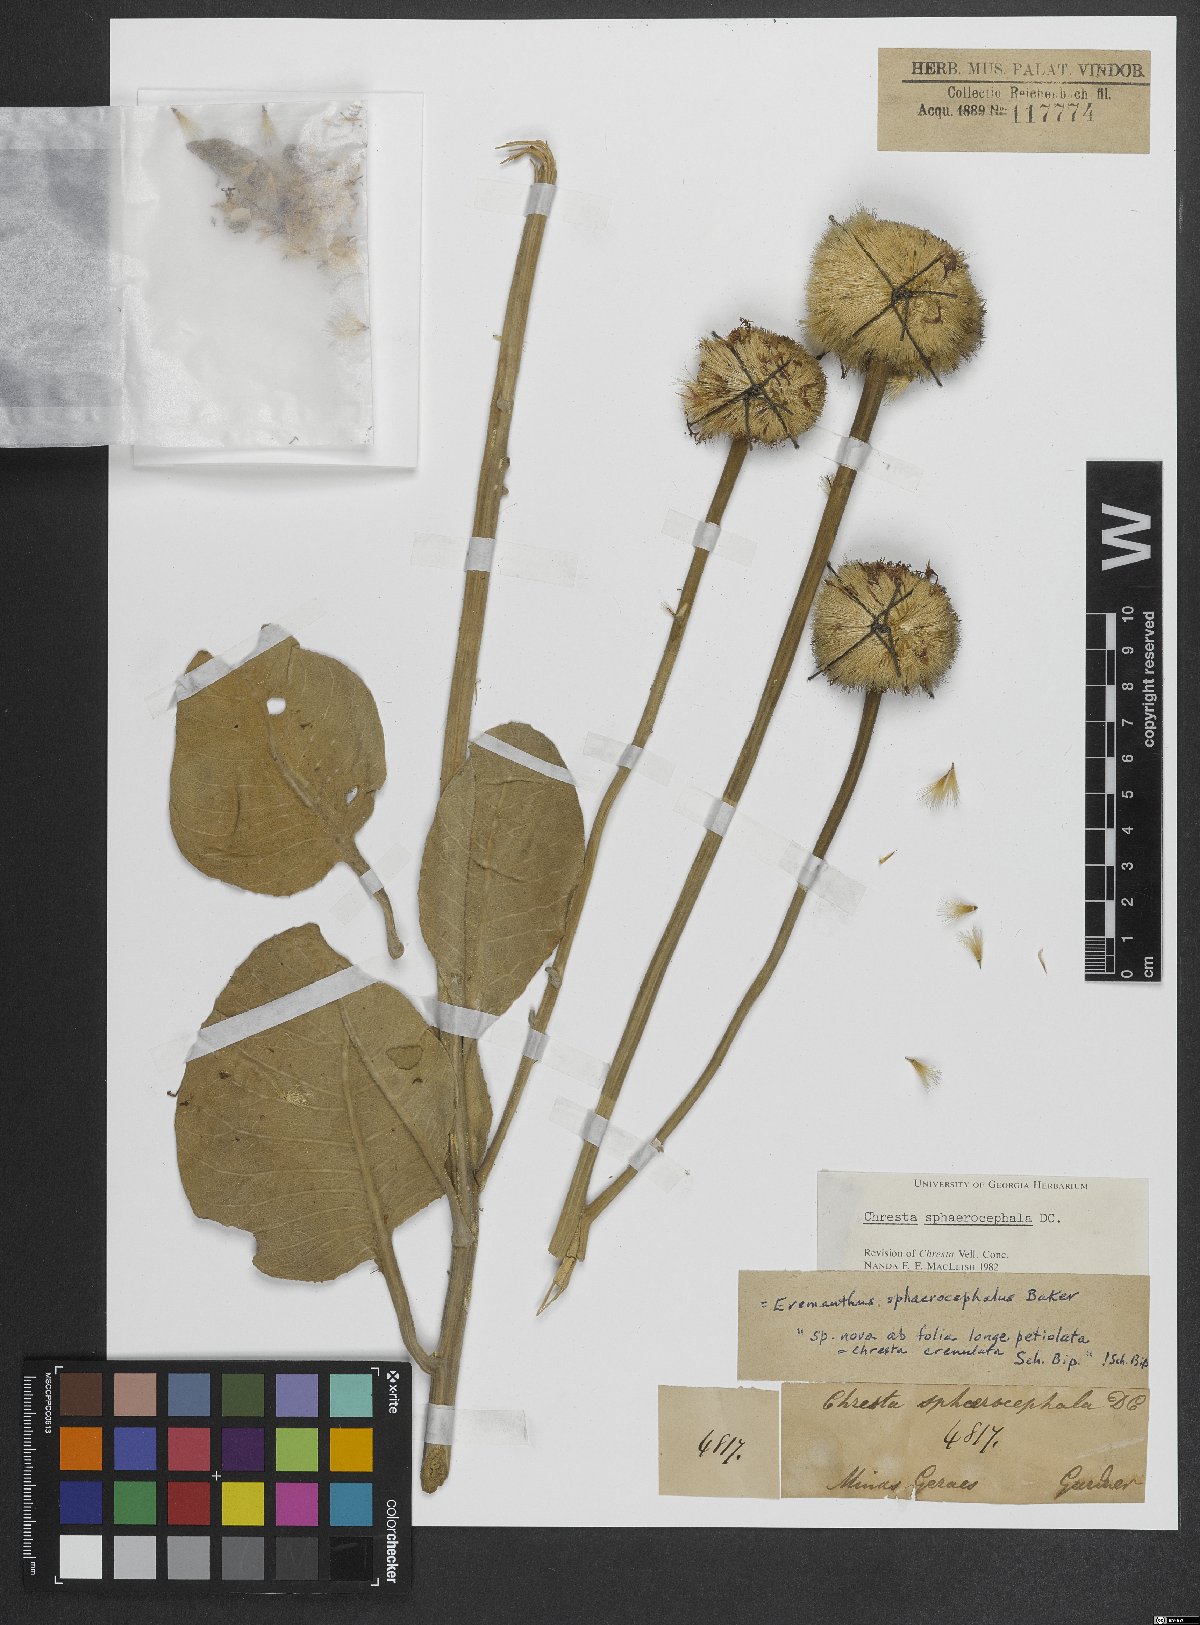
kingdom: Plantae
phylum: Tracheophyta
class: Magnoliopsida
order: Asterales
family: Asteraceae
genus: Chresta
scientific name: Chresta sphaerocephala
